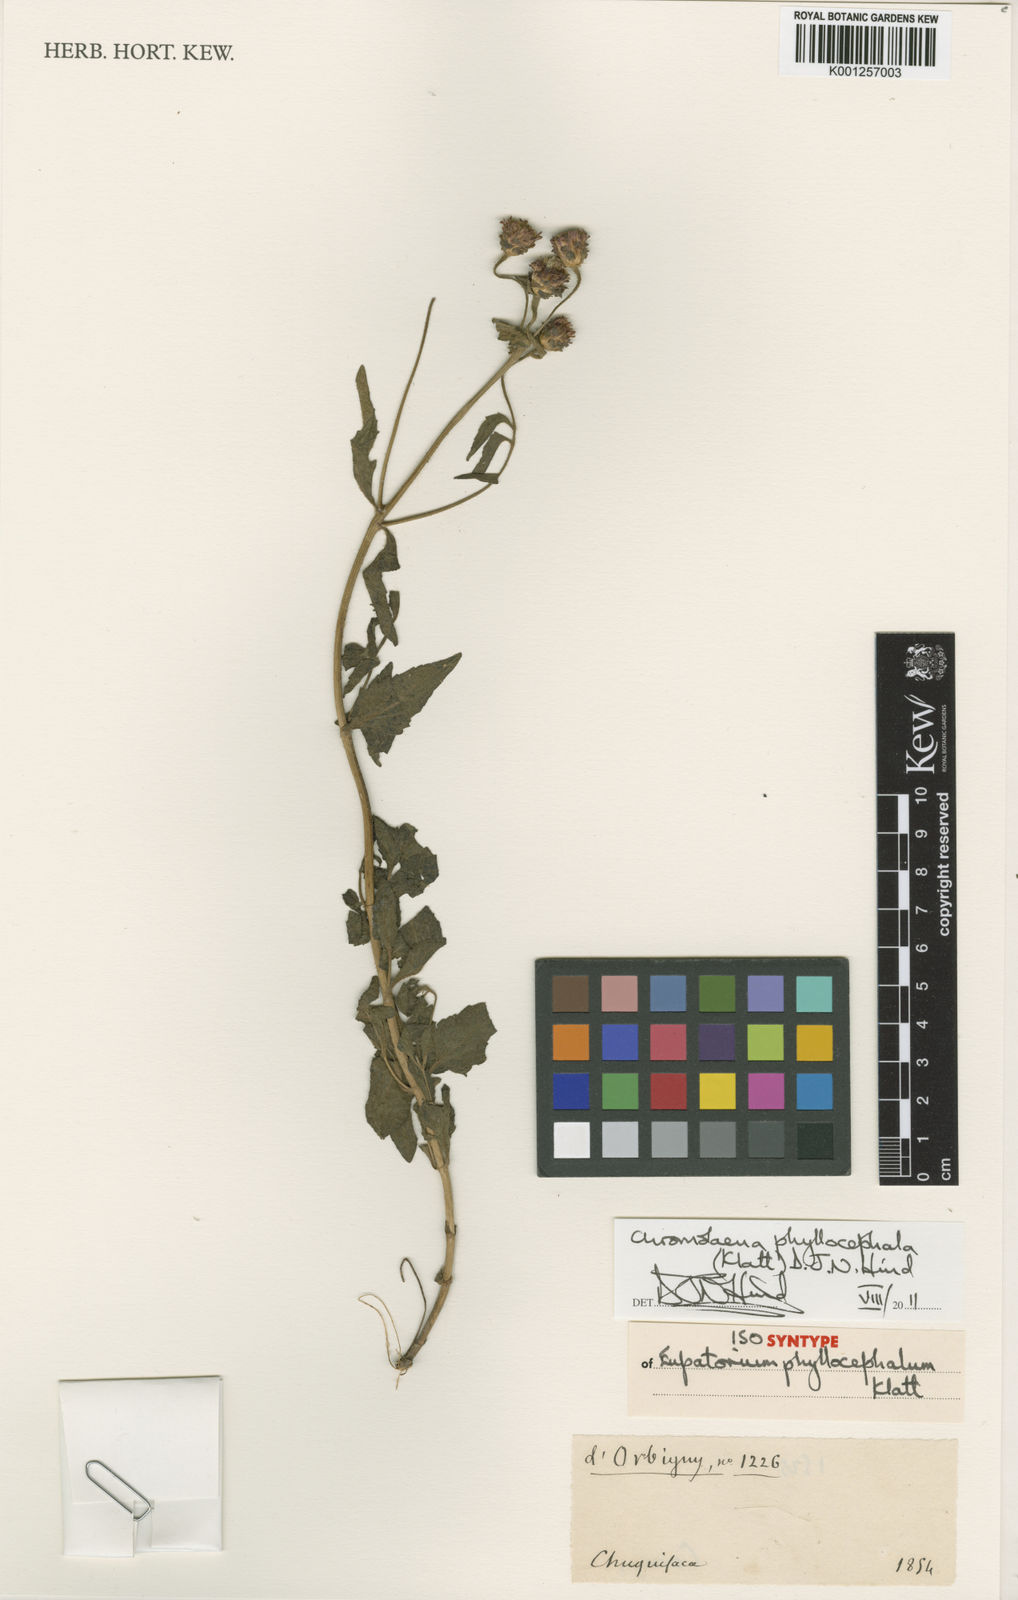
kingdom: Plantae
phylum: Tracheophyta
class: Magnoliopsida
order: Asterales
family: Asteraceae
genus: Chromolaena
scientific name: Chromolaena hirsuta
